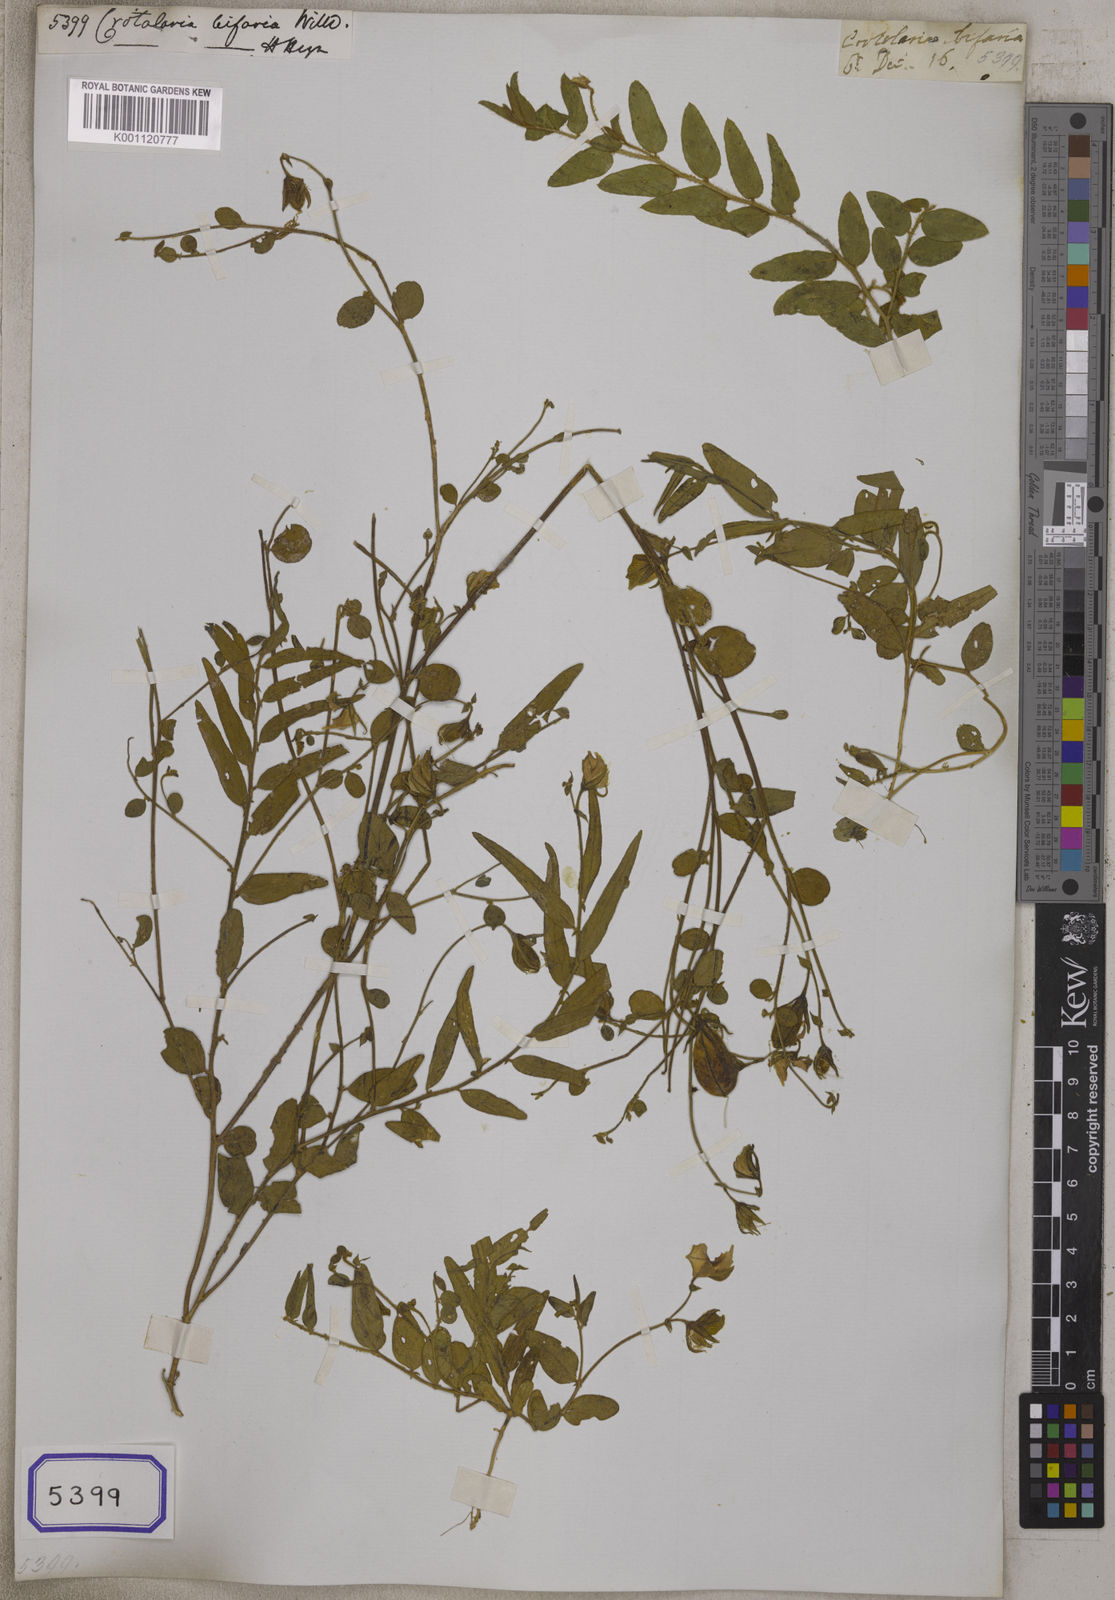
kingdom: Plantae
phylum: Tracheophyta
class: Magnoliopsida
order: Fabales
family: Fabaceae
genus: Crotalaria
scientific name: Crotalaria
